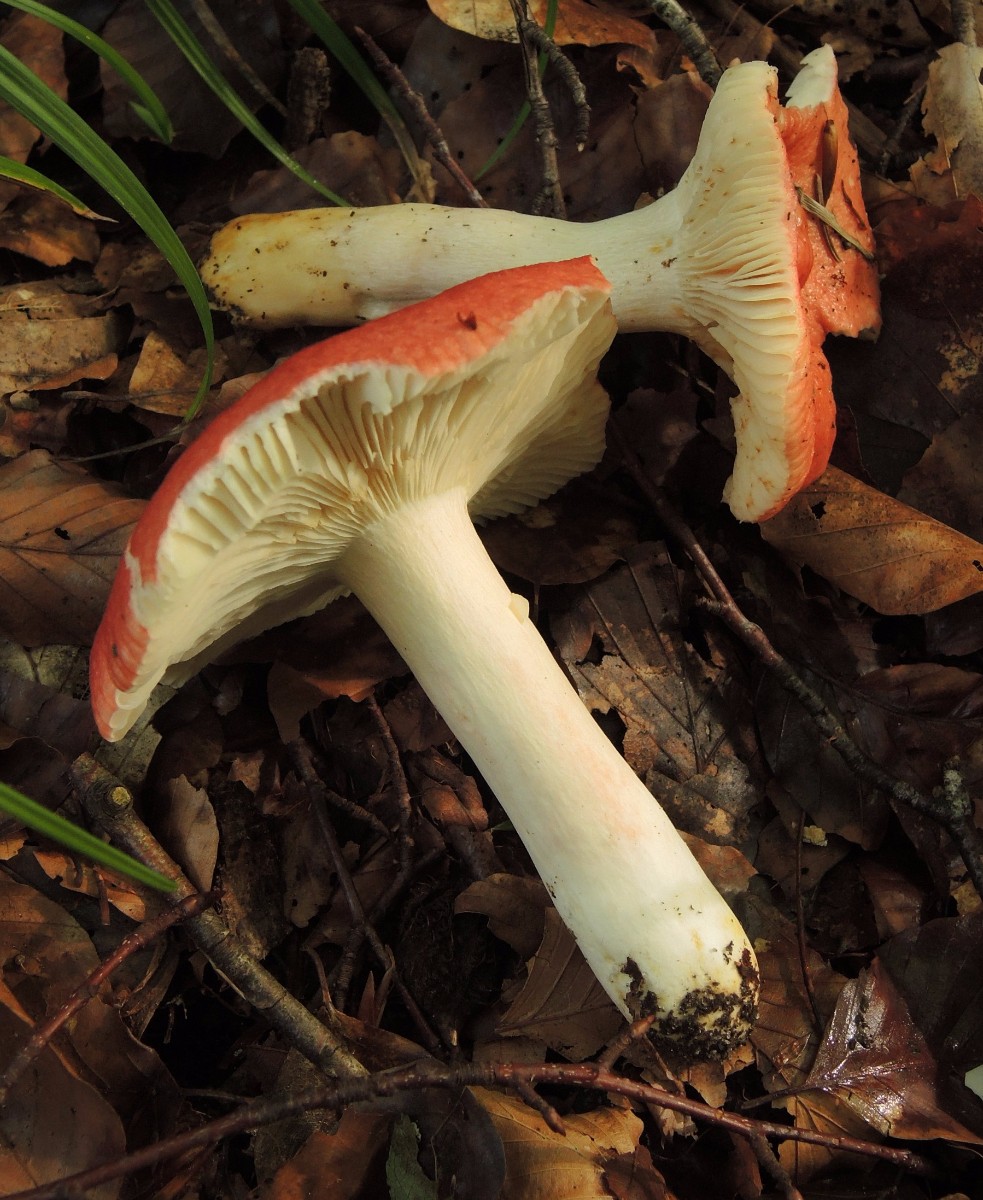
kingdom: Fungi
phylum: Basidiomycota
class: Agaricomycetes
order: Russulales
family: Russulaceae
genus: Russula
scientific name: Russula pseudointegra
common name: cinnoberrød skørhat
